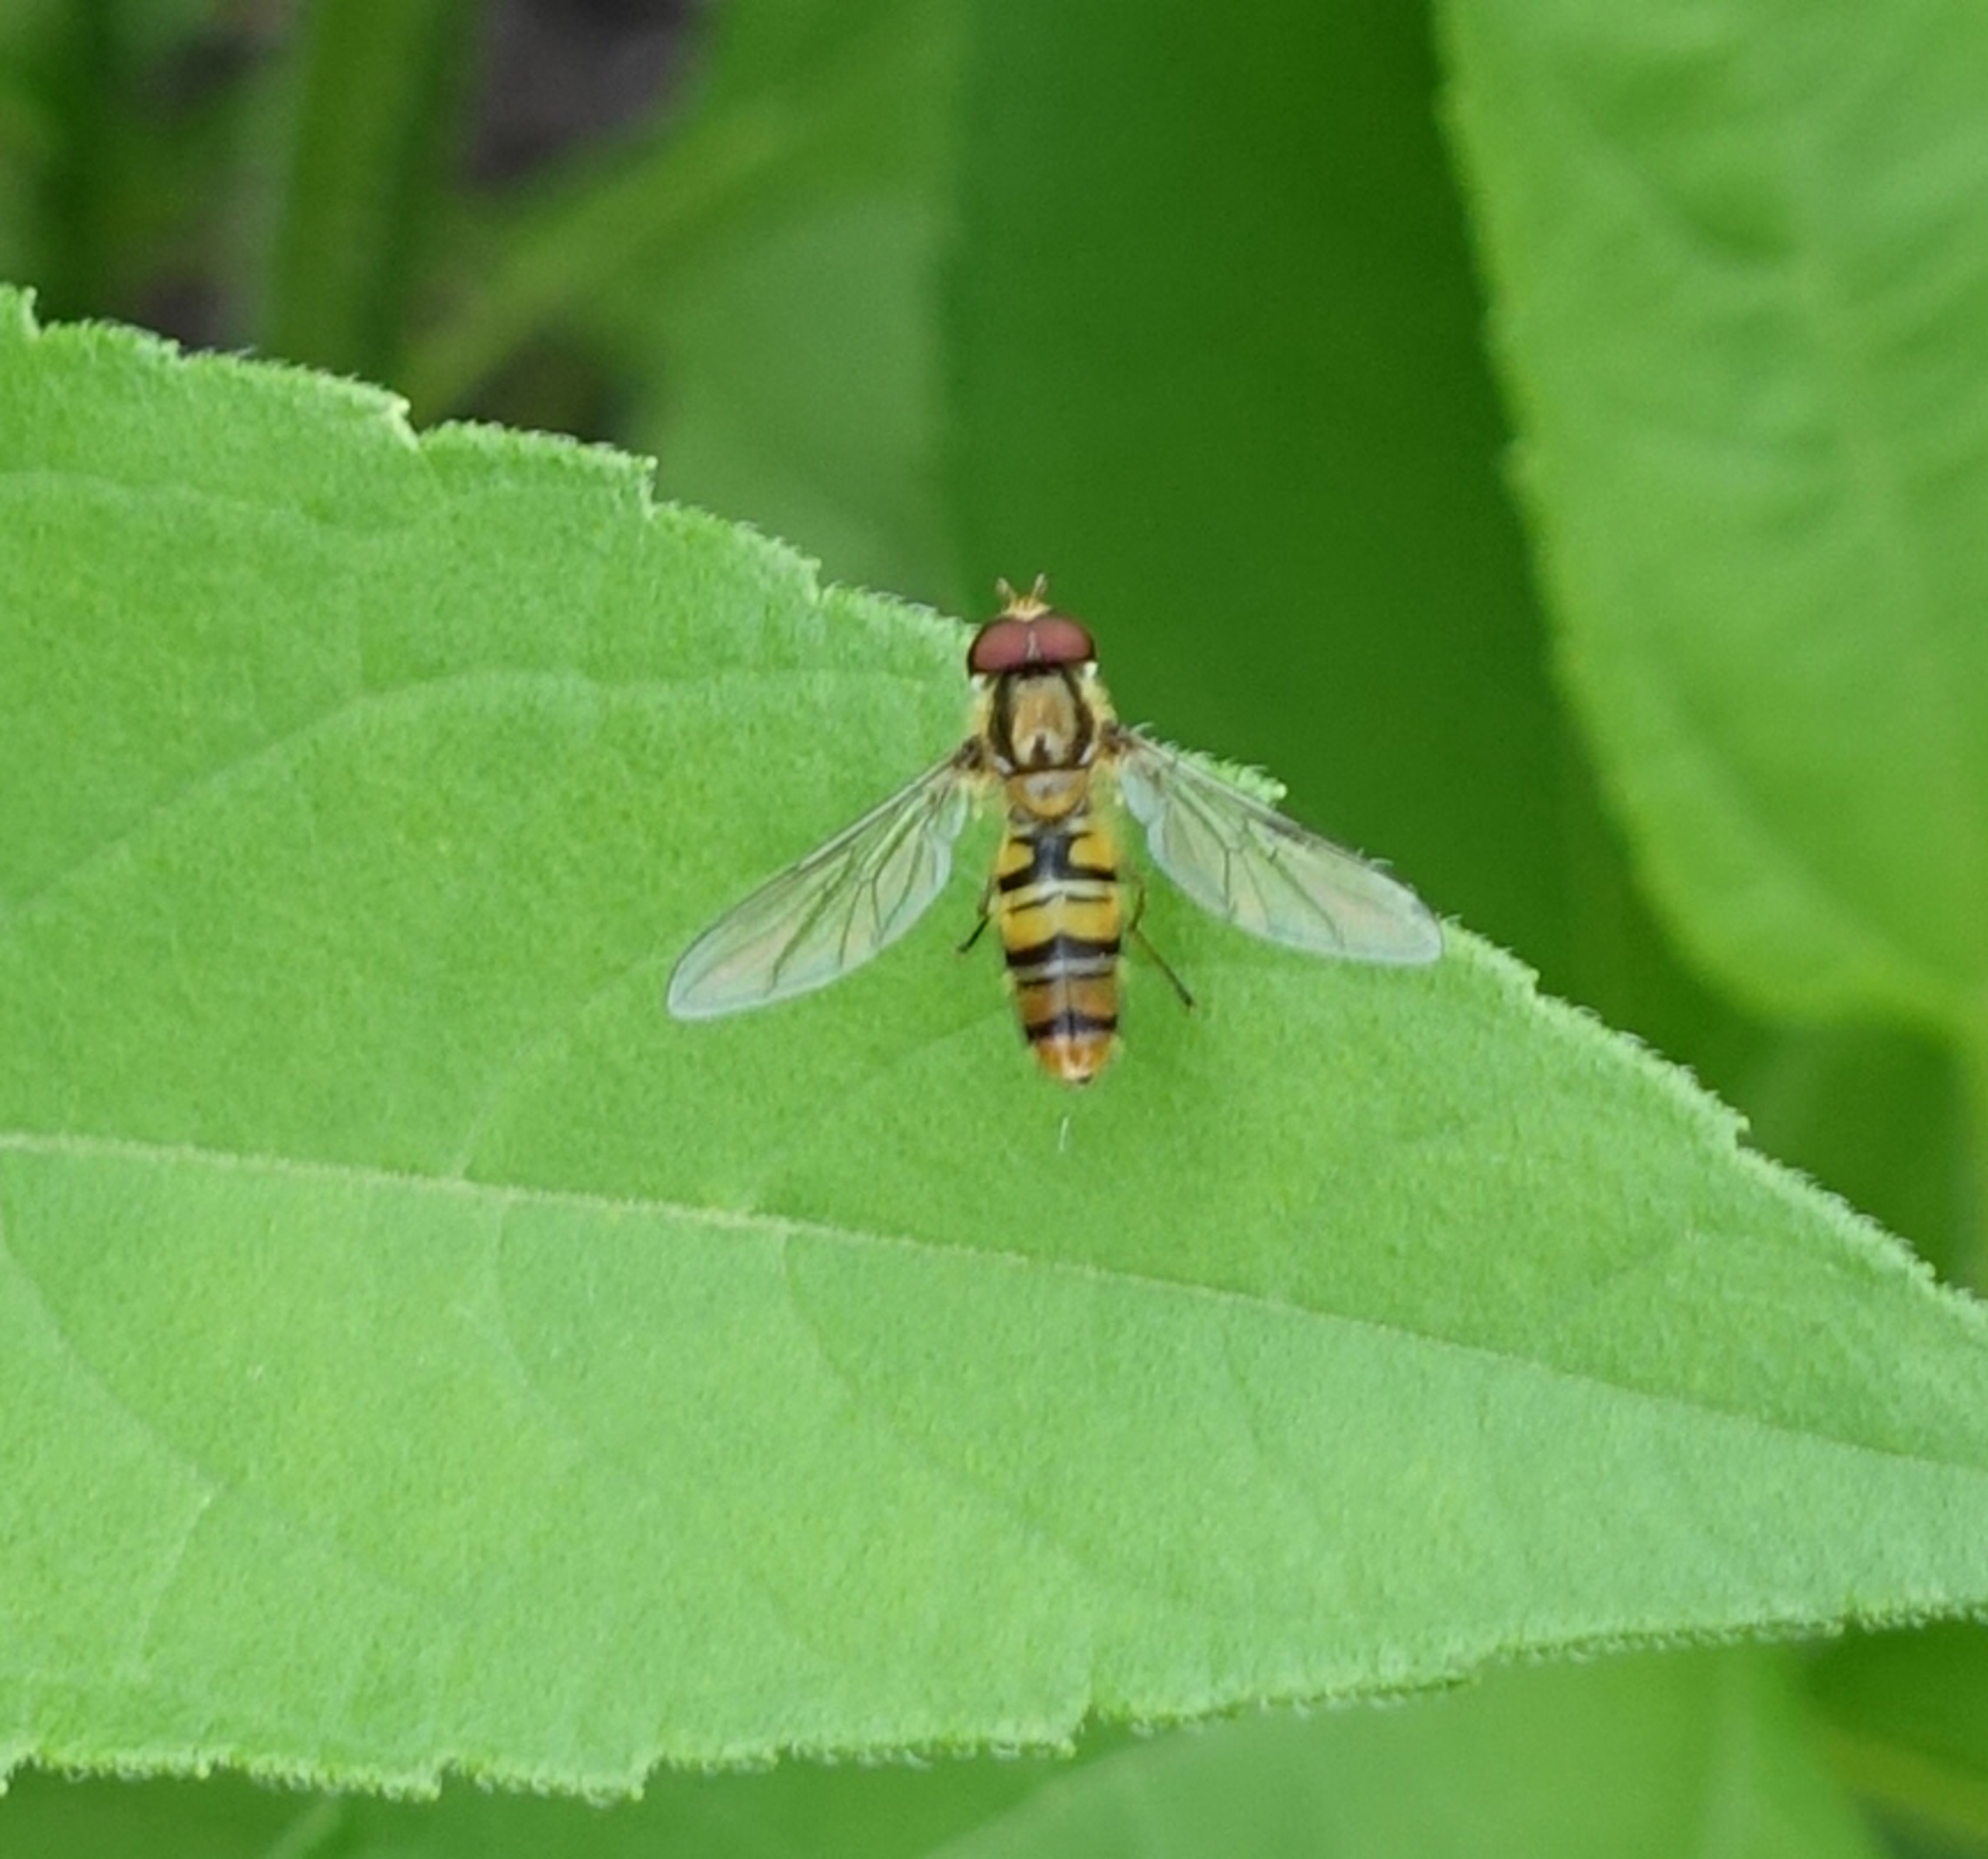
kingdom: Animalia
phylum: Arthropoda
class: Insecta
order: Diptera
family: Syrphidae
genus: Episyrphus
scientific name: Episyrphus balteatus
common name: Dobbeltbåndet svirreflue
